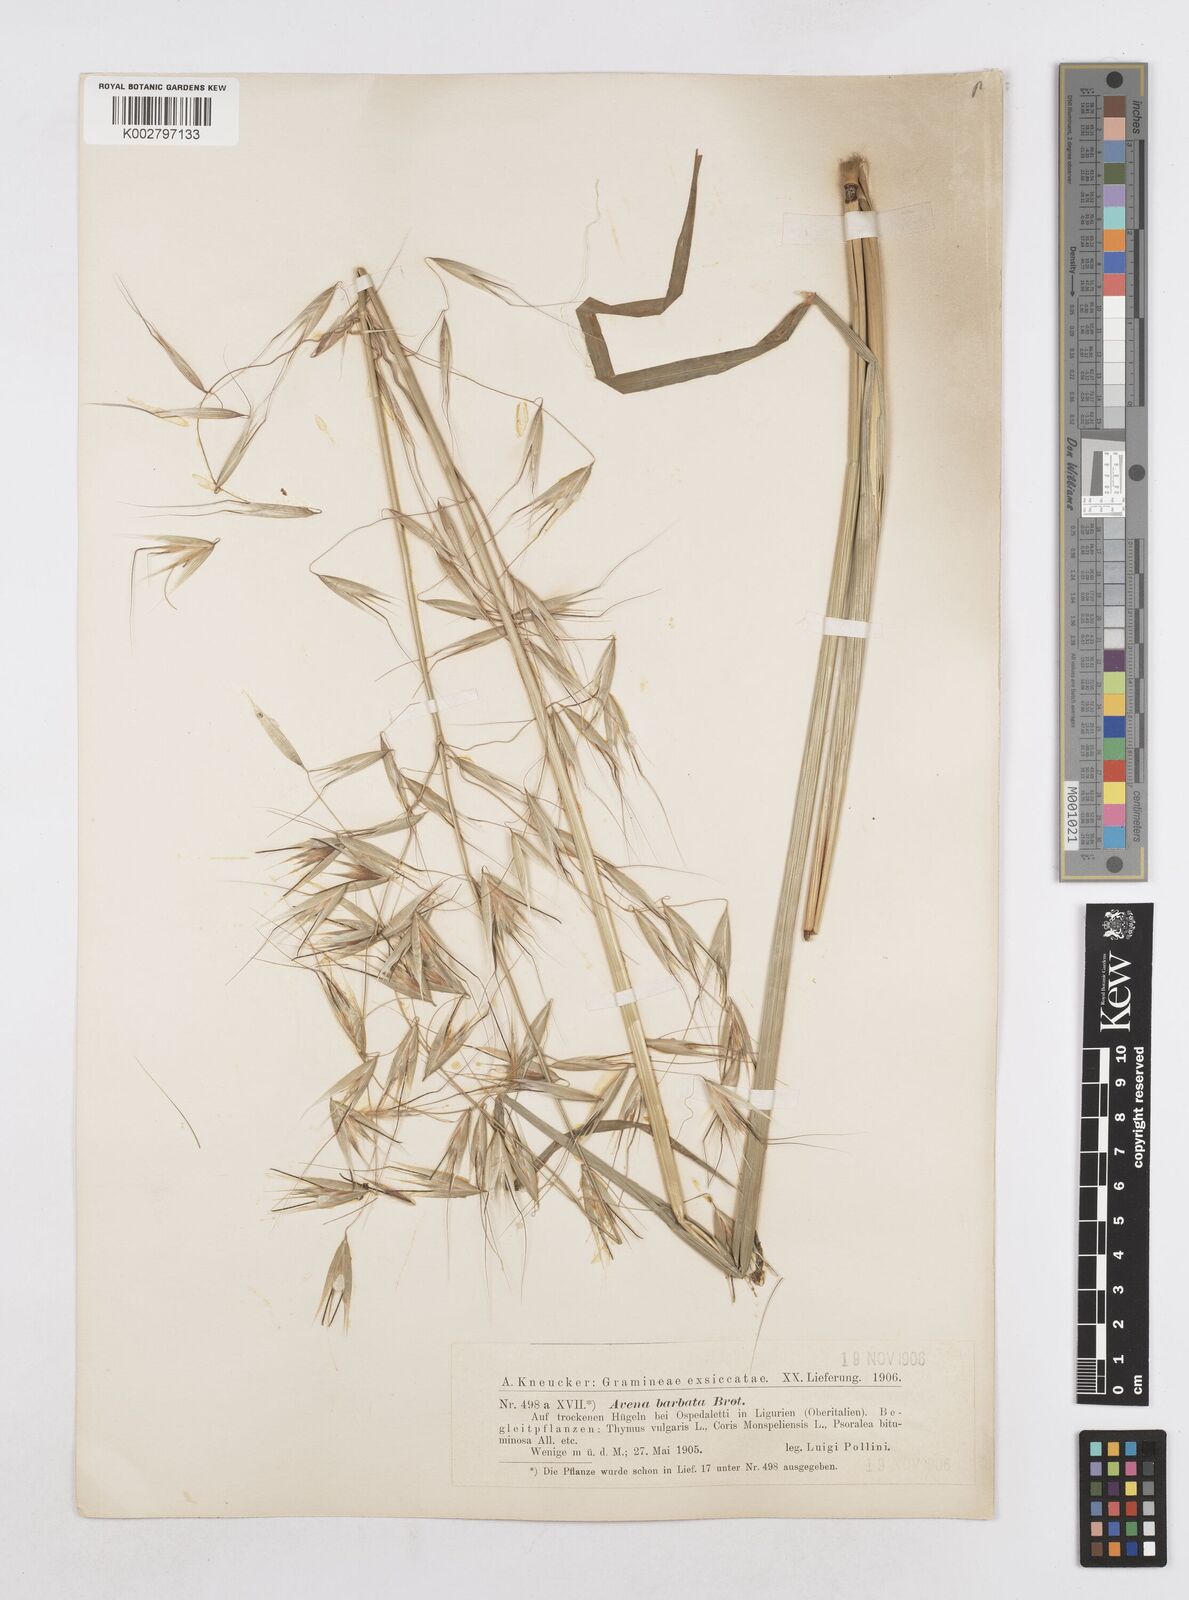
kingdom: Plantae
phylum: Tracheophyta
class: Liliopsida
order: Poales
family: Poaceae
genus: Avena
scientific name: Avena
